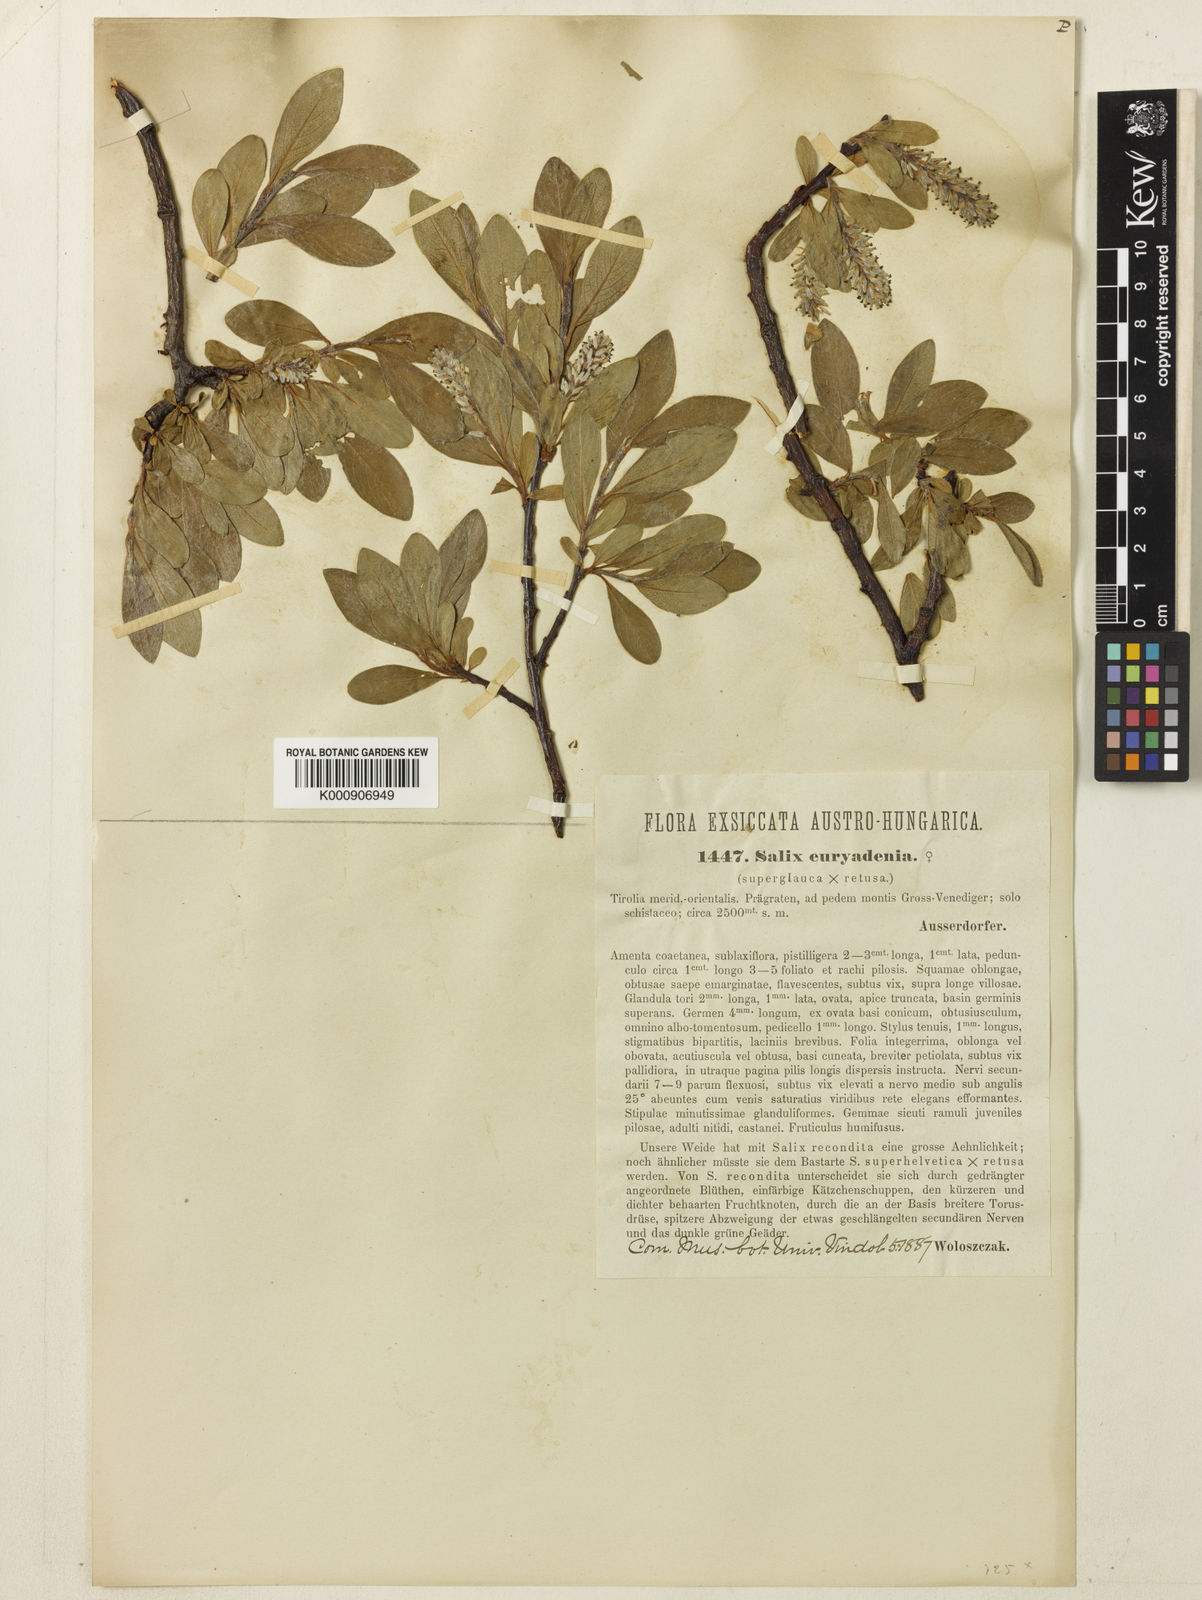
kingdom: Plantae
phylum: Tracheophyta
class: Magnoliopsida
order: Malpighiales
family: Salicaceae
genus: Salix
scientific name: Salix lapponum
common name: Downy willow
